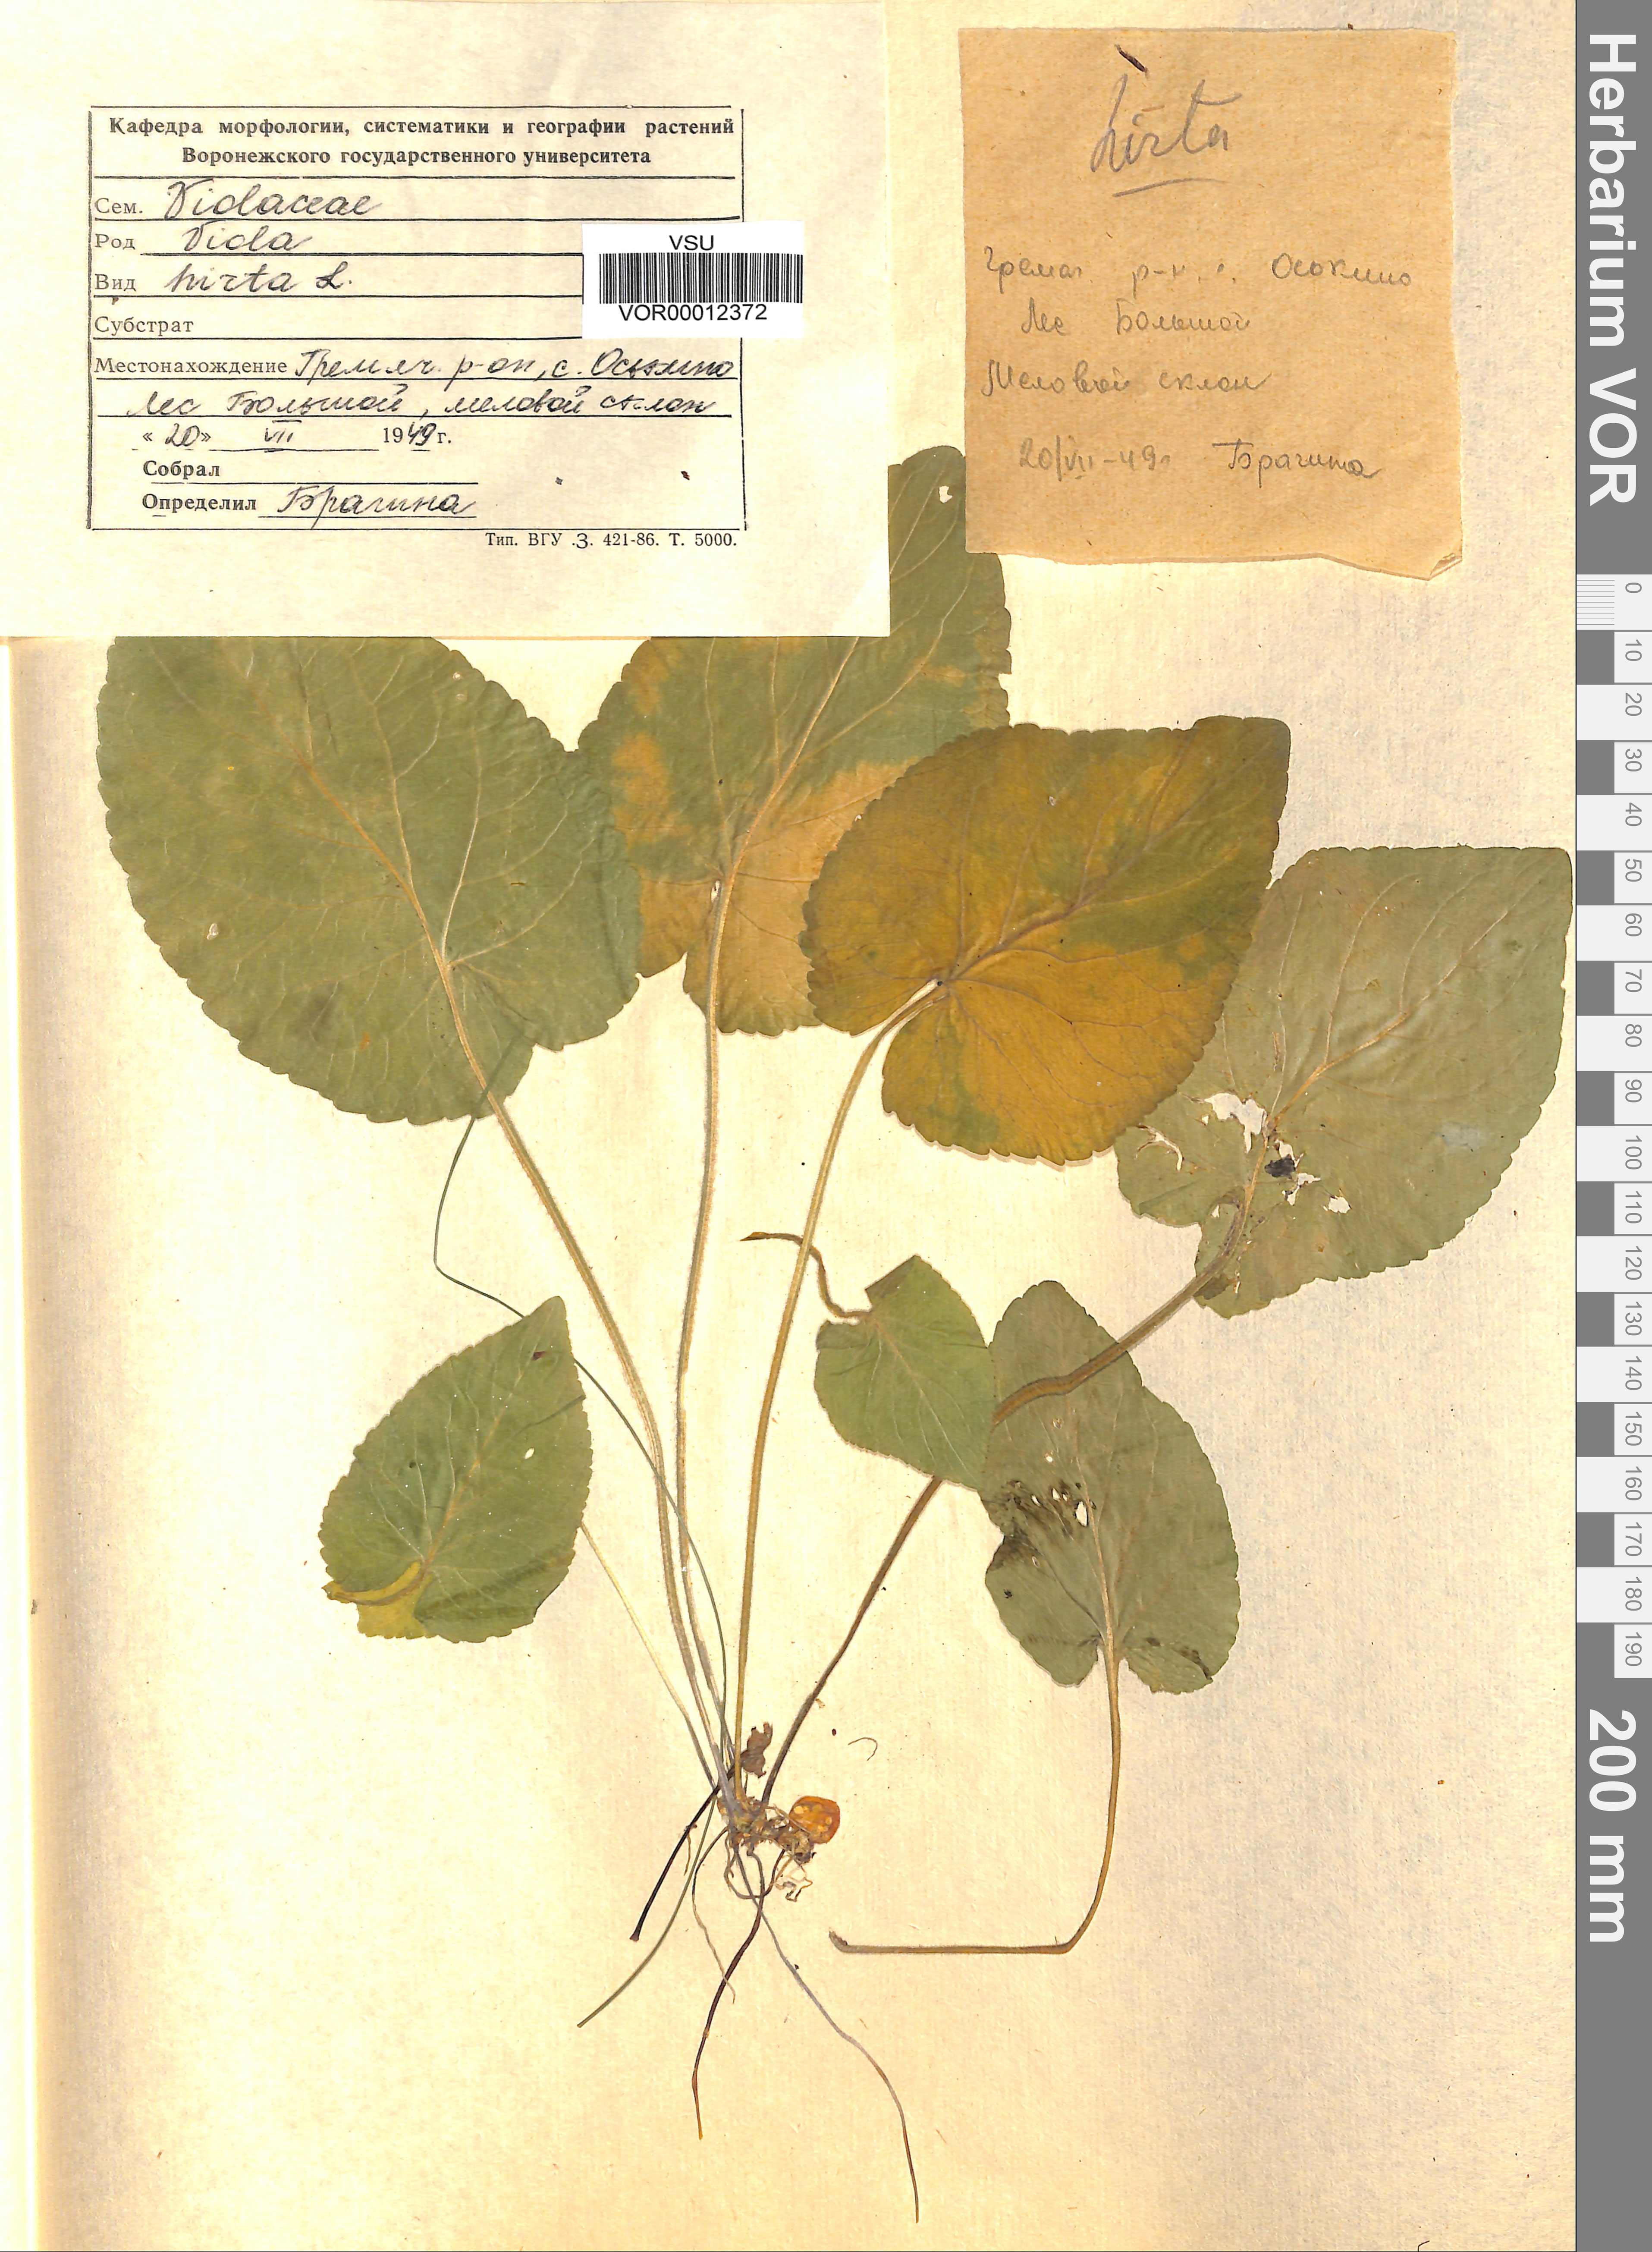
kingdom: Plantae
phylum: Tracheophyta
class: Magnoliopsida
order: Malpighiales
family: Violaceae
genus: Viola
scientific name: Viola hirta
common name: Hairy violet
